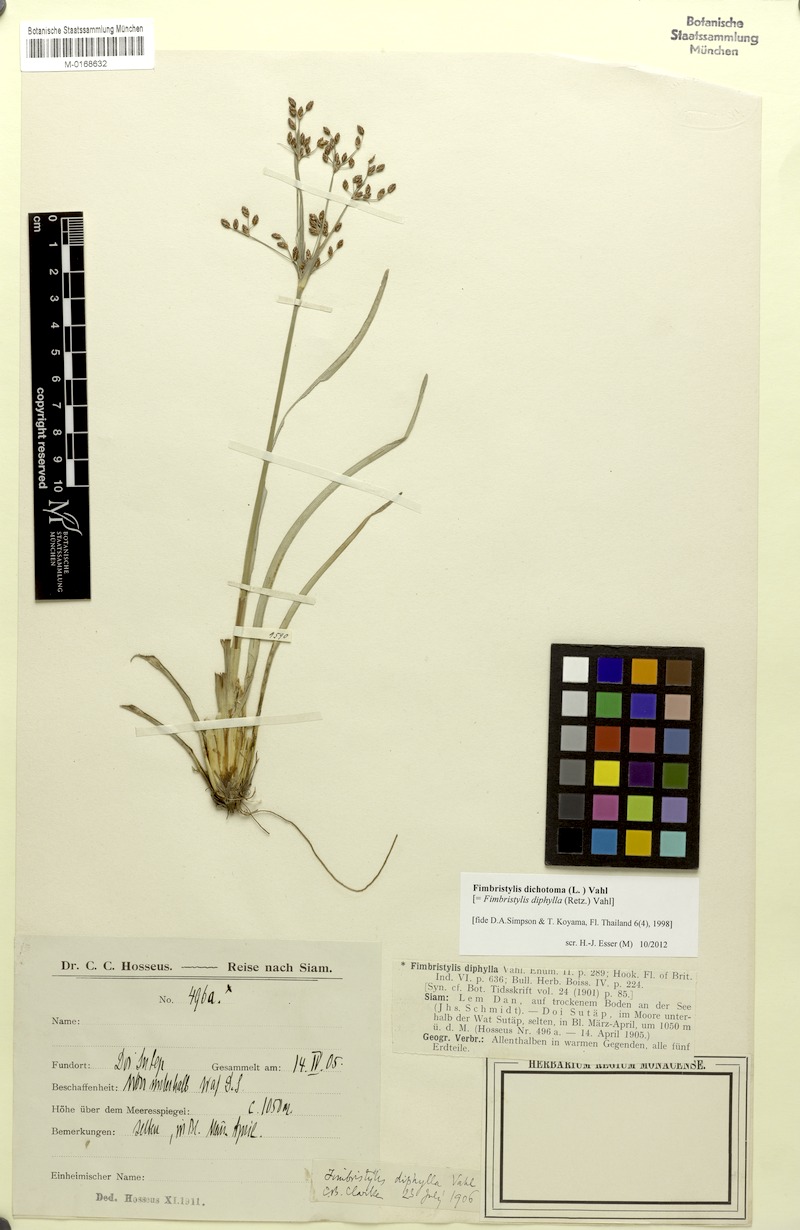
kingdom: Plantae
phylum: Tracheophyta
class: Liliopsida
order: Poales
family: Cyperaceae
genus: Fimbristylis
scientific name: Fimbristylis dichotoma
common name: Forked fimbry
